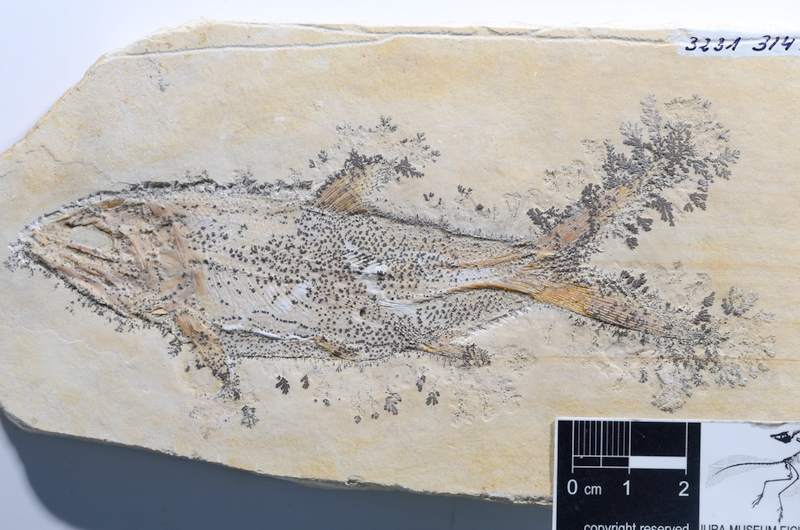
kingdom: Animalia
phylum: Chordata
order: Amiiformes
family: Caturidae
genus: Caturus
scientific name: Caturus furcatus
